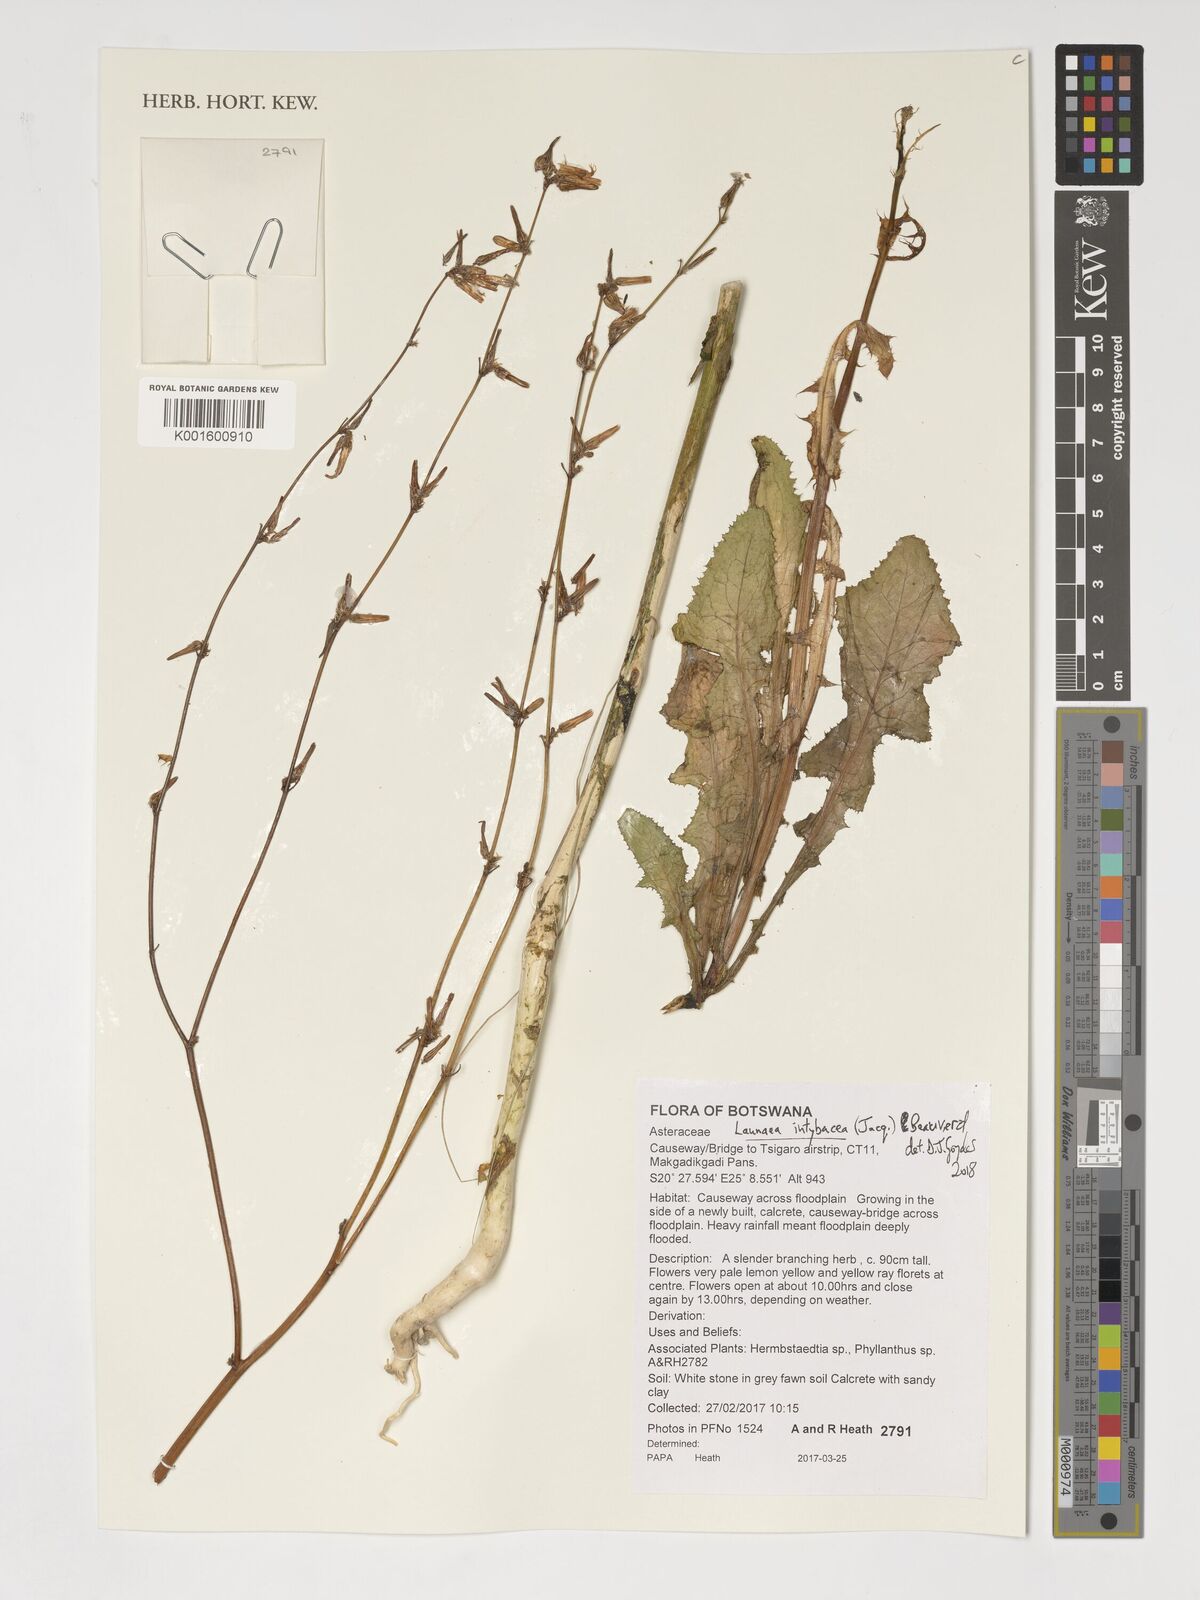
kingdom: Plantae
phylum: Tracheophyta
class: Magnoliopsida
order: Asterales
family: Asteraceae
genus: Launaea
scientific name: Launaea intybacea
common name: Achicoria azul
